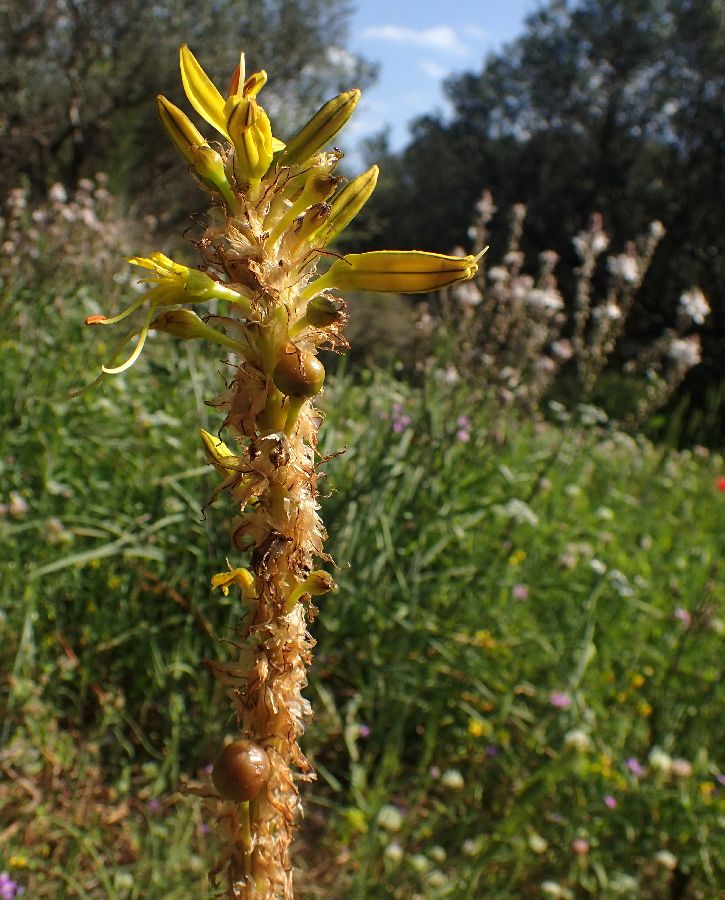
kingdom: Plantae
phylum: Tracheophyta
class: Liliopsida
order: Asparagales
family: Asphodelaceae
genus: Asphodeline
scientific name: Asphodeline lutea
